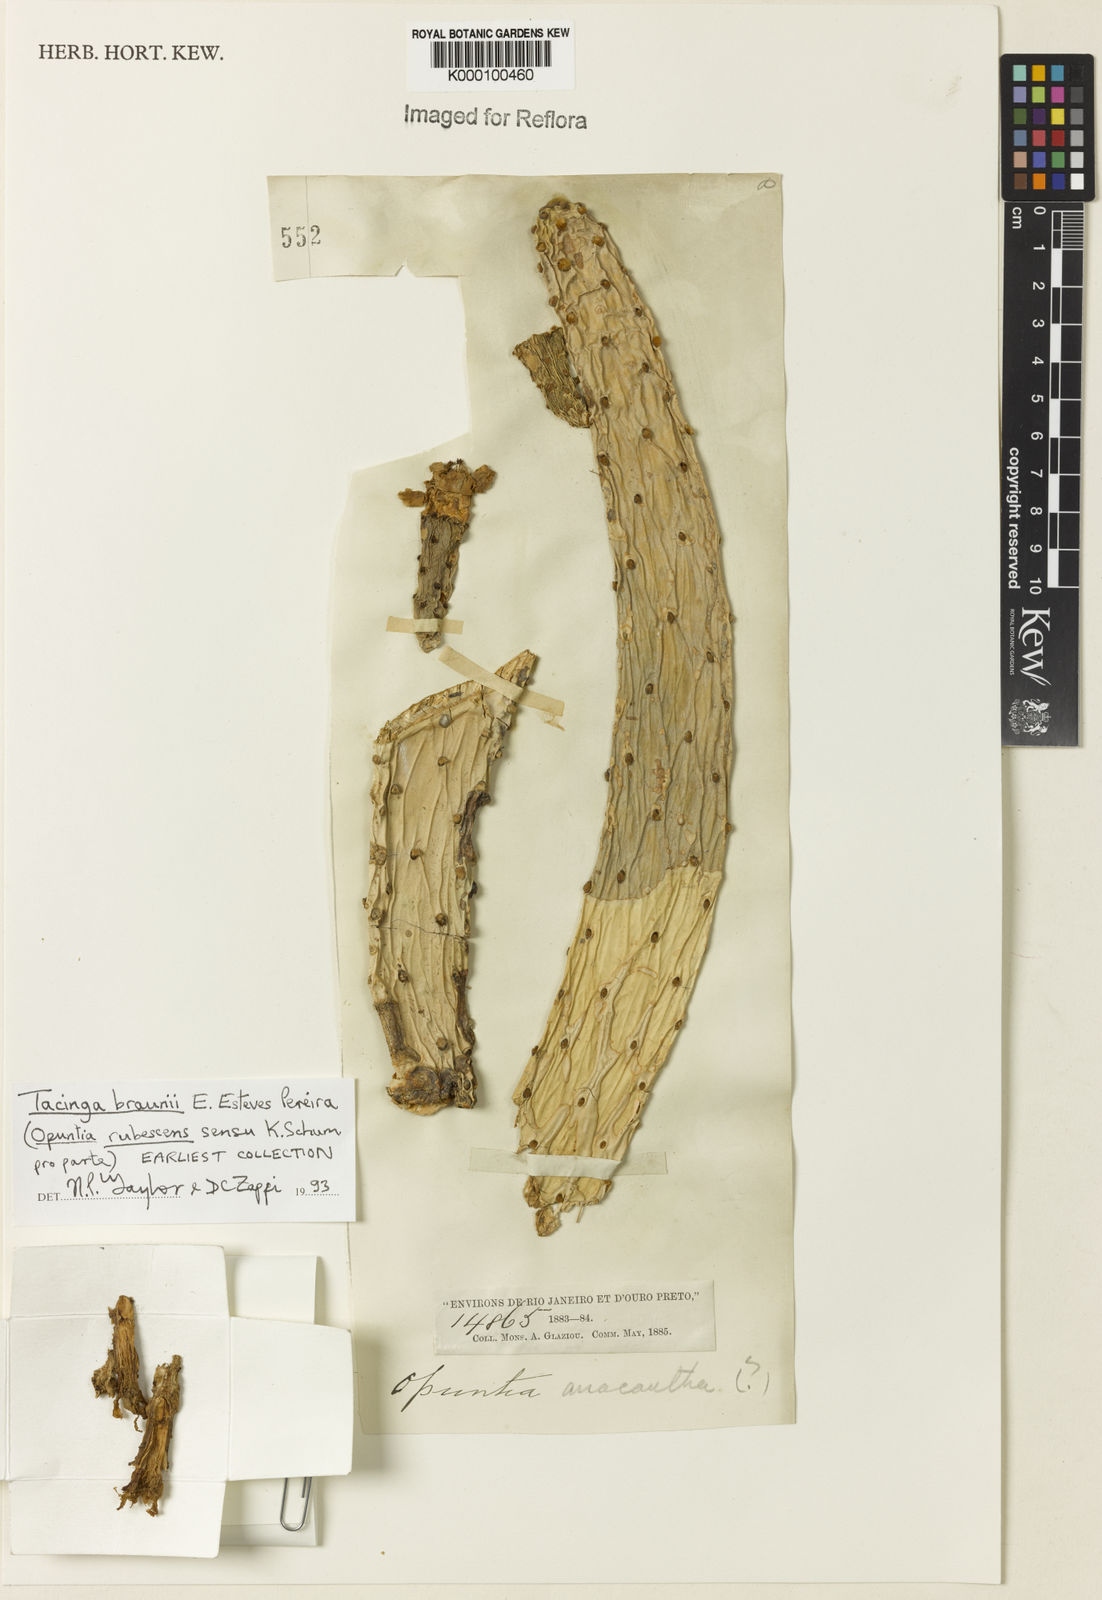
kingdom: Plantae
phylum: Tracheophyta
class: Magnoliopsida
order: Caryophyllales
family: Cactaceae
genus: Tacinga
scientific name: Tacinga braunii
